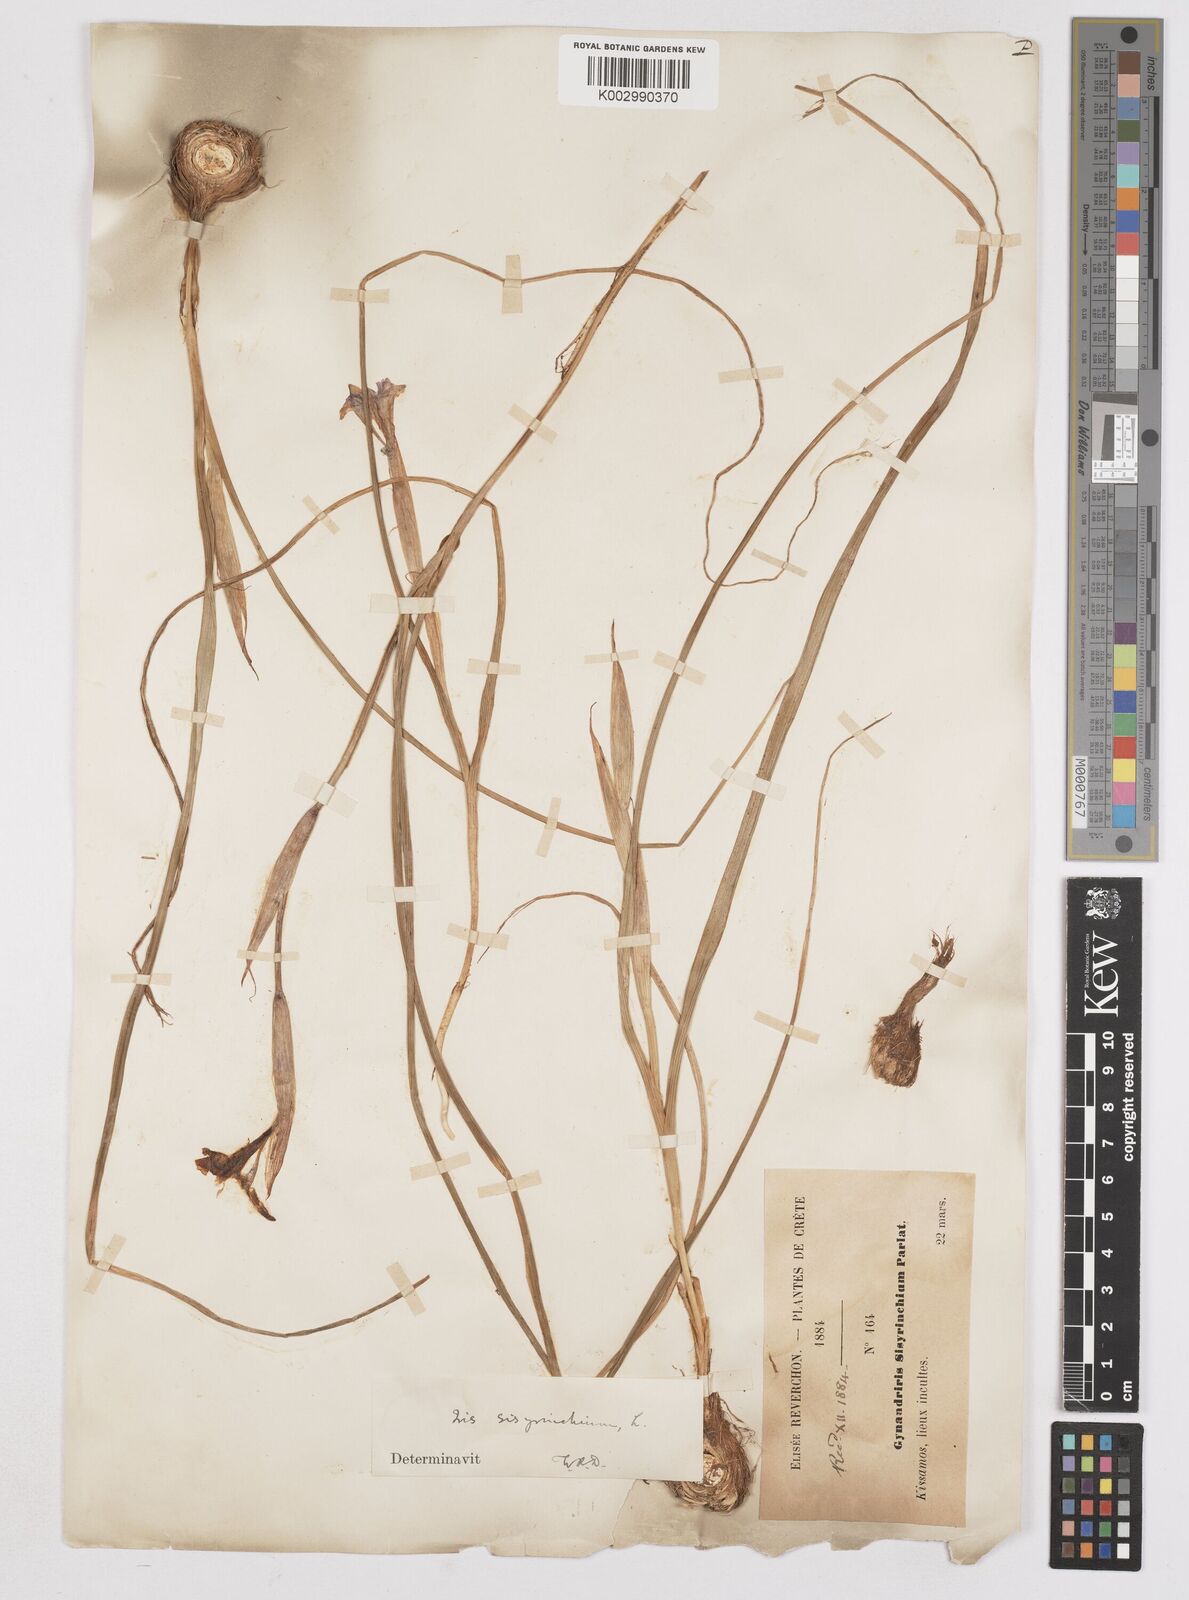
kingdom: Plantae
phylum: Tracheophyta
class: Liliopsida
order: Asparagales
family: Iridaceae
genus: Moraea
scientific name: Moraea sisyrinchium
